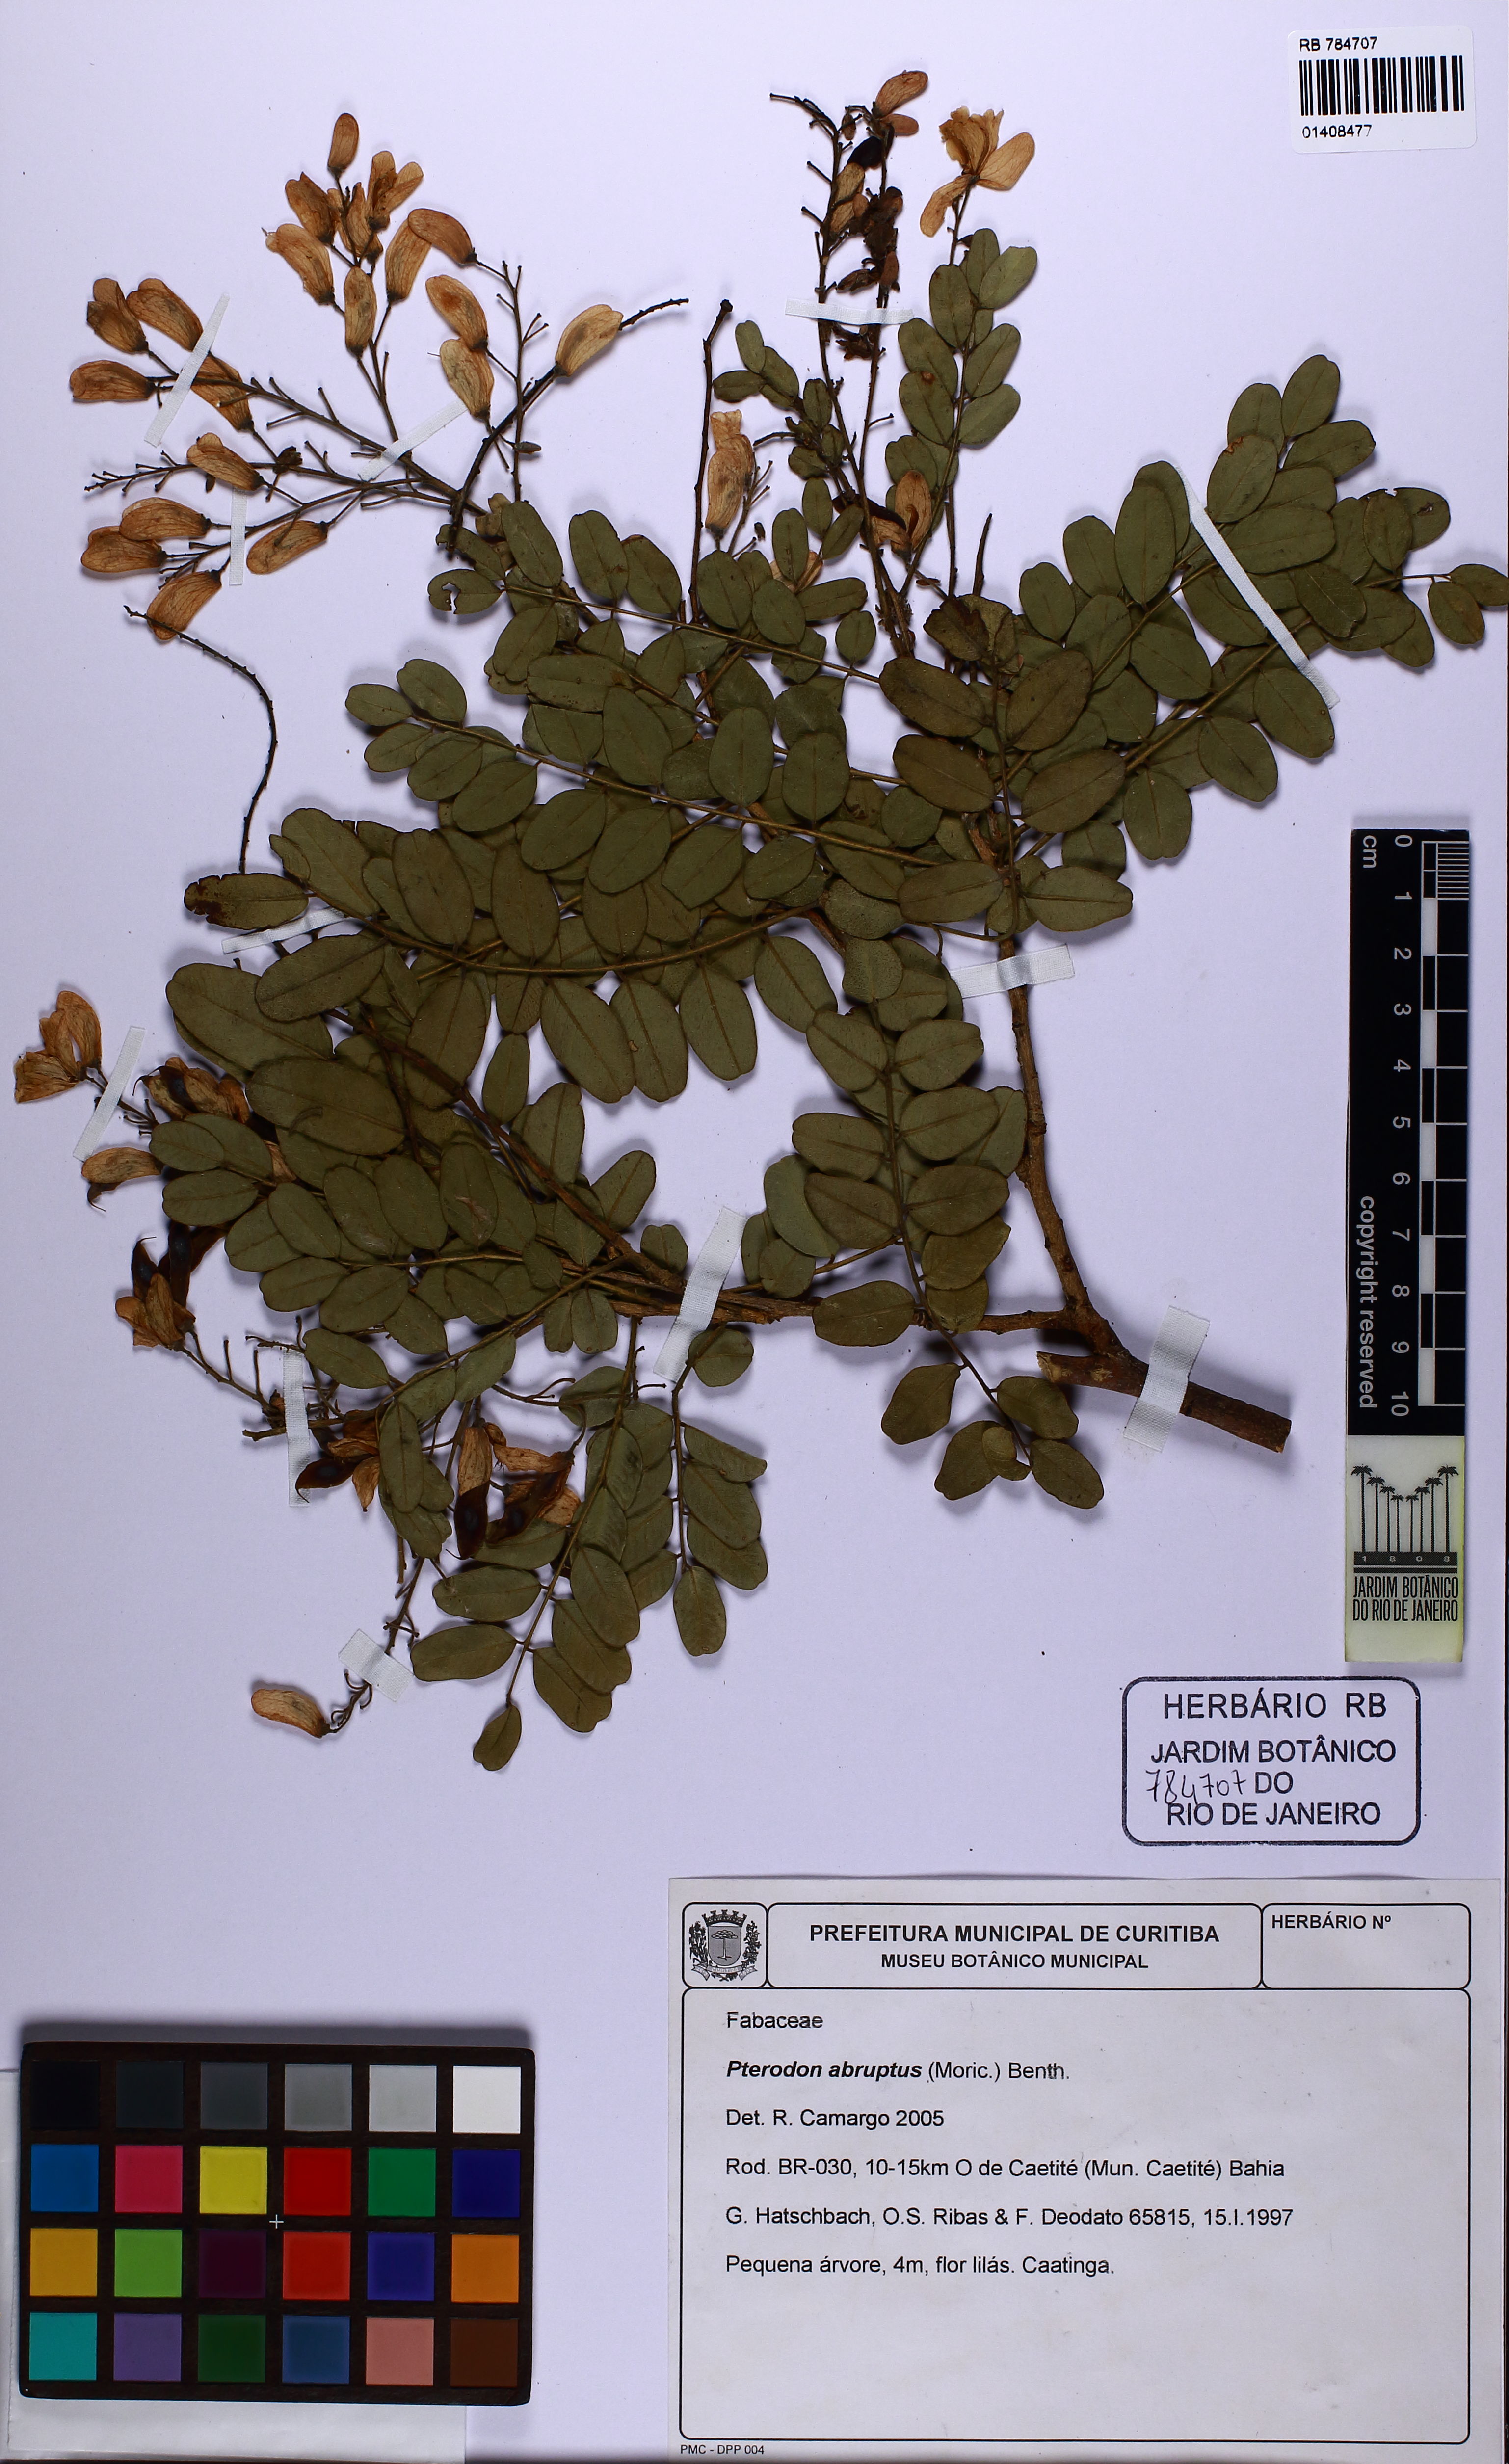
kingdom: Plantae
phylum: Tracheophyta
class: Magnoliopsida
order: Fabales
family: Fabaceae
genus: Pterodon
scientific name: Pterodon abruptus
